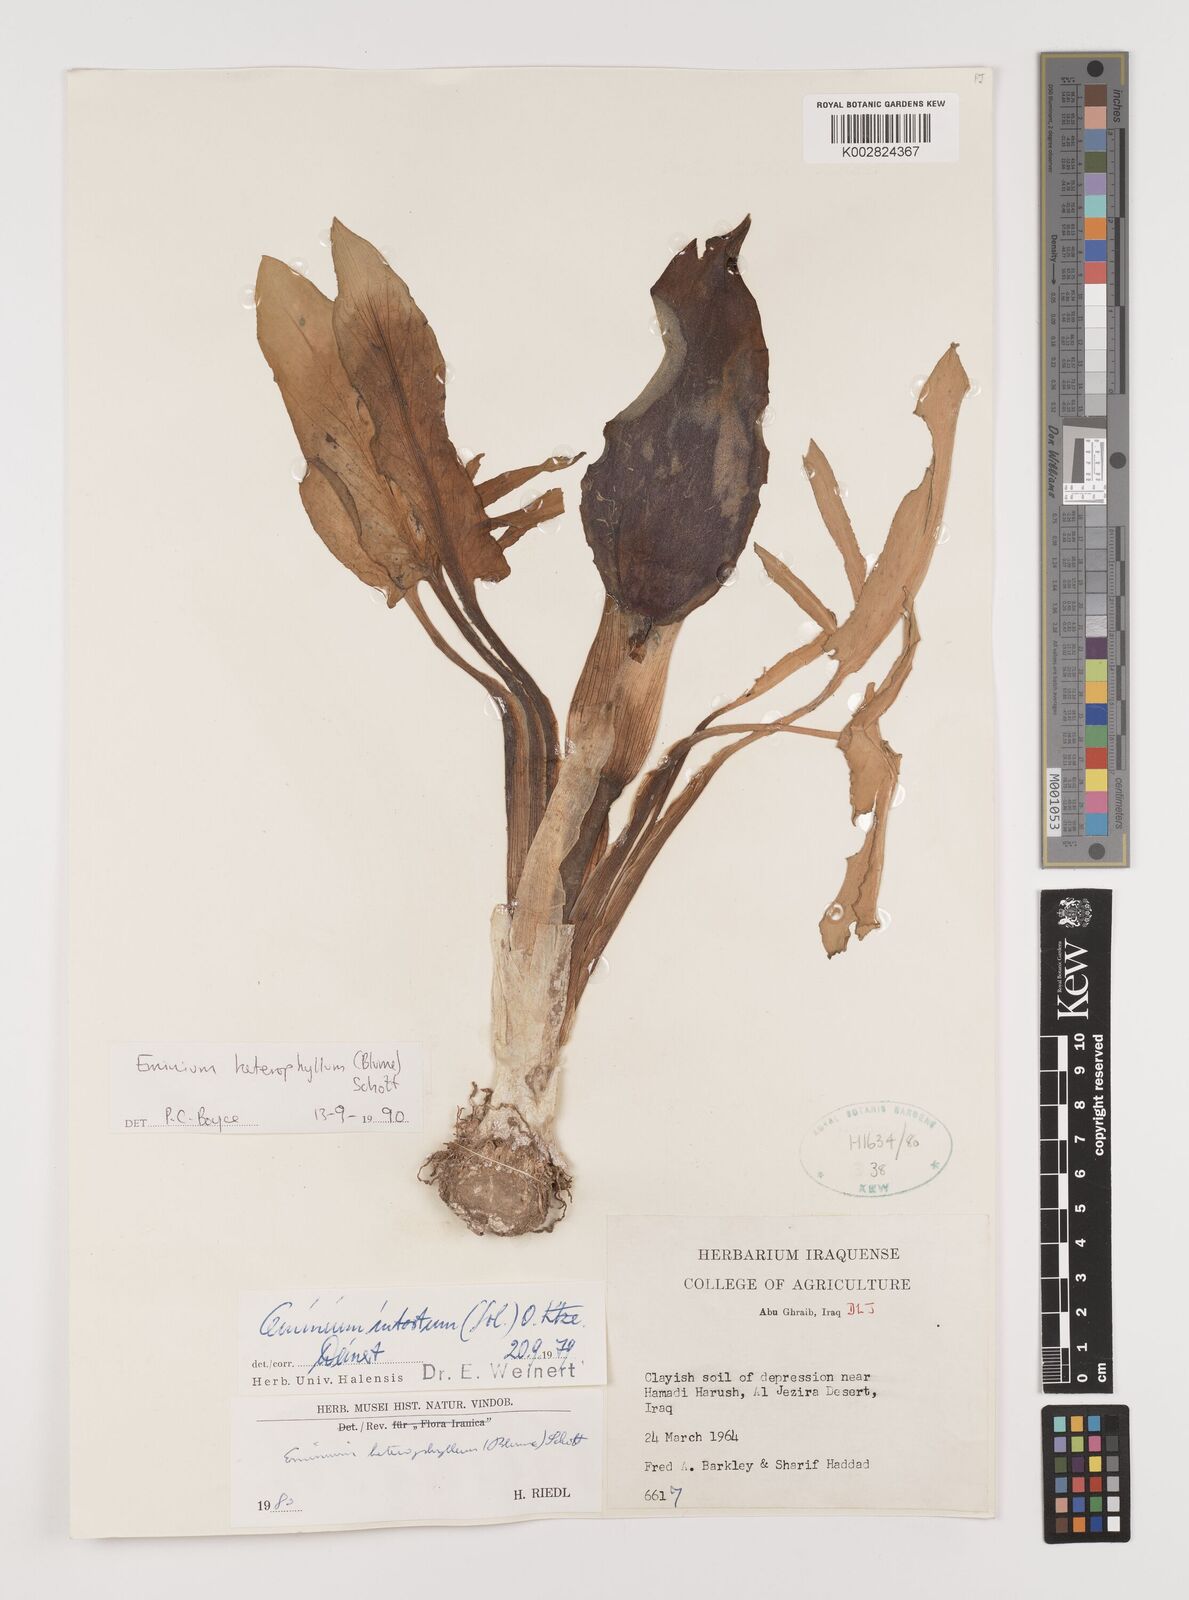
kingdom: Plantae
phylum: Tracheophyta
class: Liliopsida
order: Alismatales
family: Araceae
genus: Eminium
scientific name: Eminium rauwolffii
